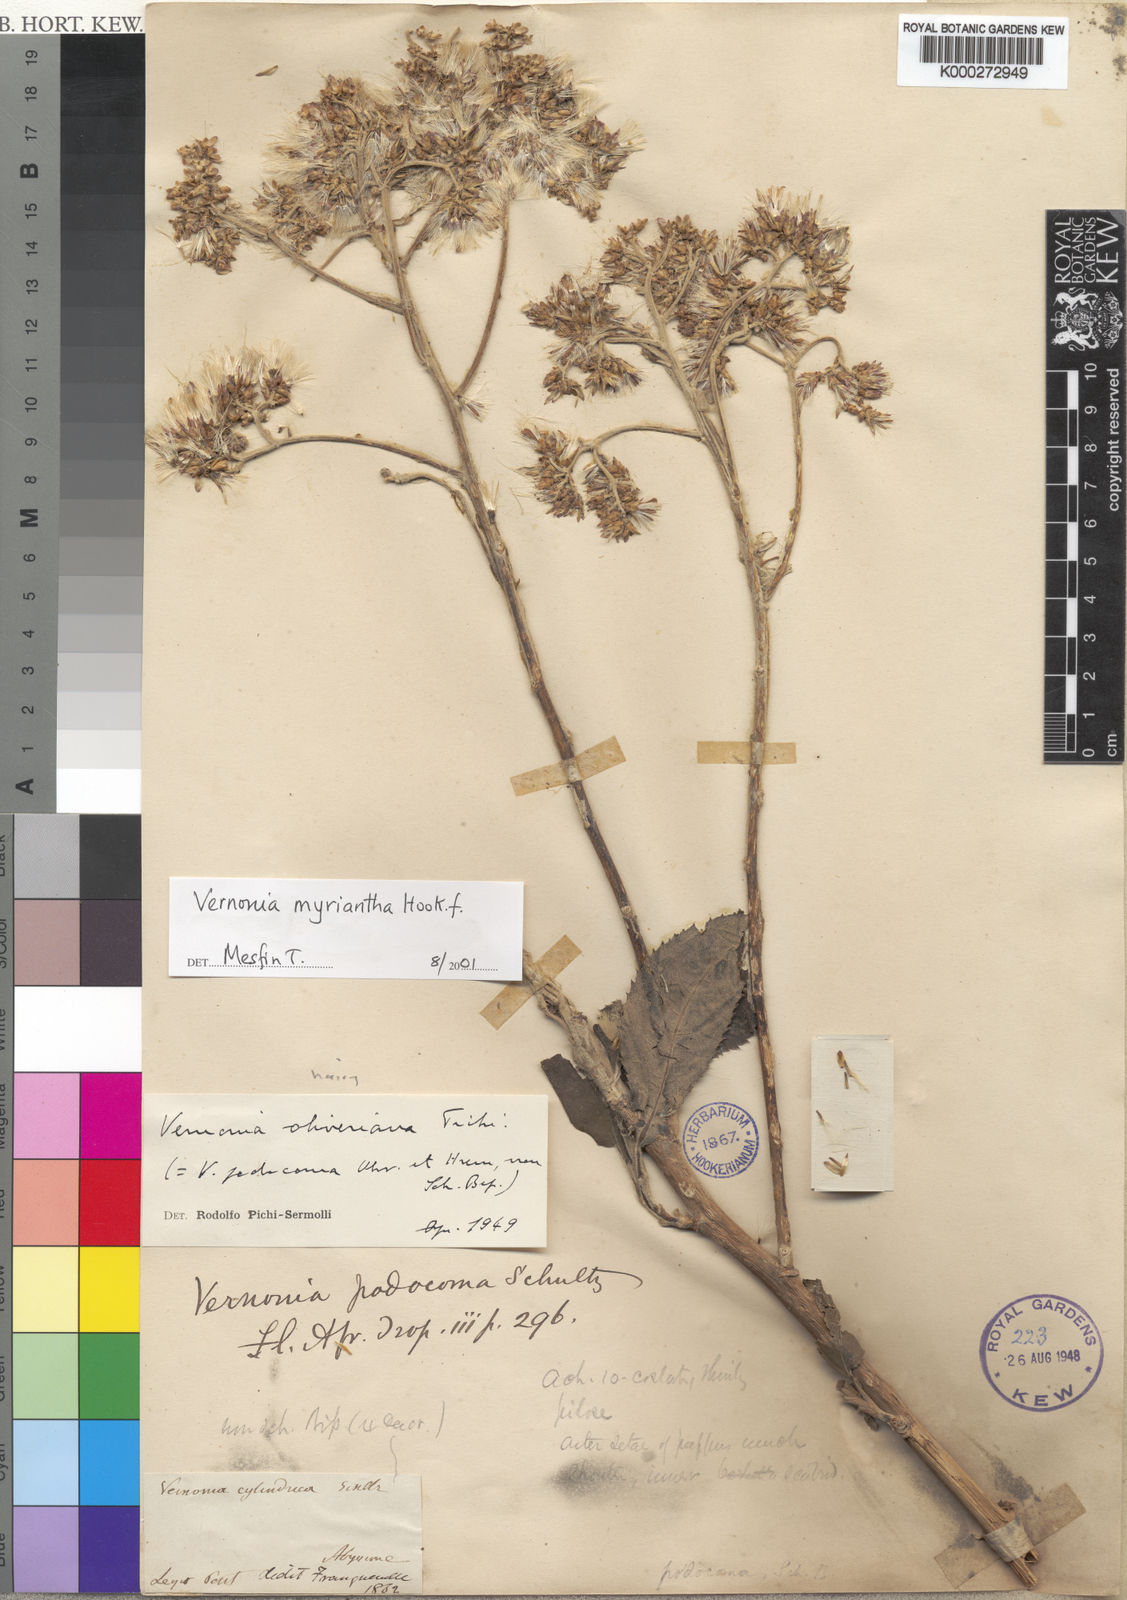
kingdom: Plantae
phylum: Tracheophyta
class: Magnoliopsida
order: Asterales
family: Asteraceae
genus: Gymnanthemum
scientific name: Gymnanthemum myrianthum
